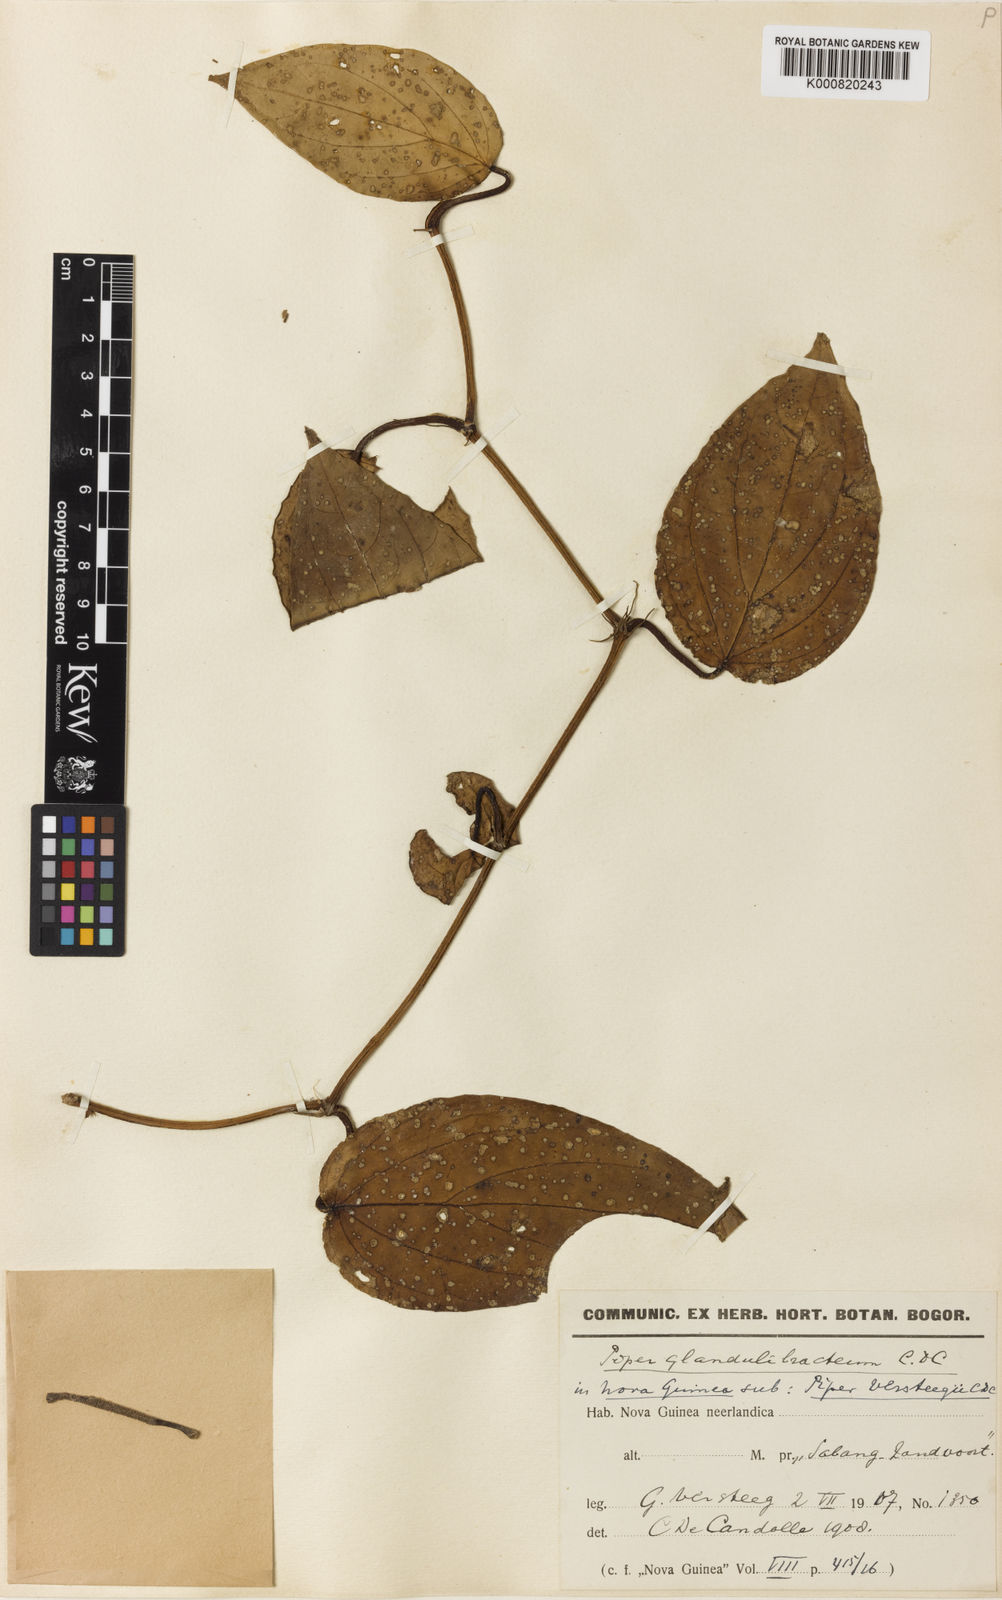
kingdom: Plantae
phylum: Tracheophyta
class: Magnoliopsida
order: Piperales
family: Piperaceae
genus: Piper
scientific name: Piper
